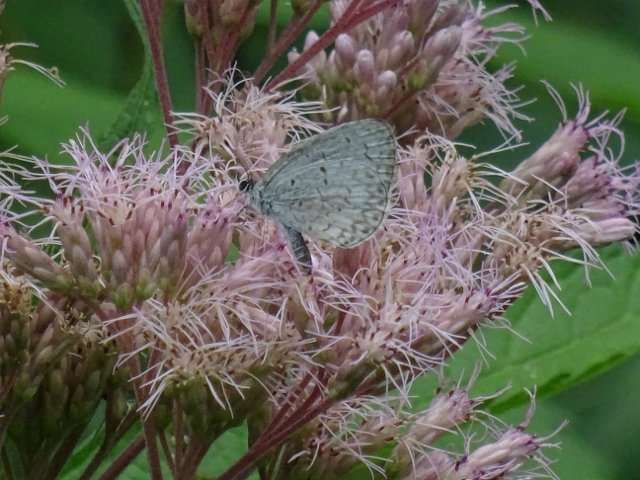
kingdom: Animalia
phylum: Arthropoda
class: Insecta
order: Lepidoptera
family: Lycaenidae
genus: Celastrina
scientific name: Celastrina
